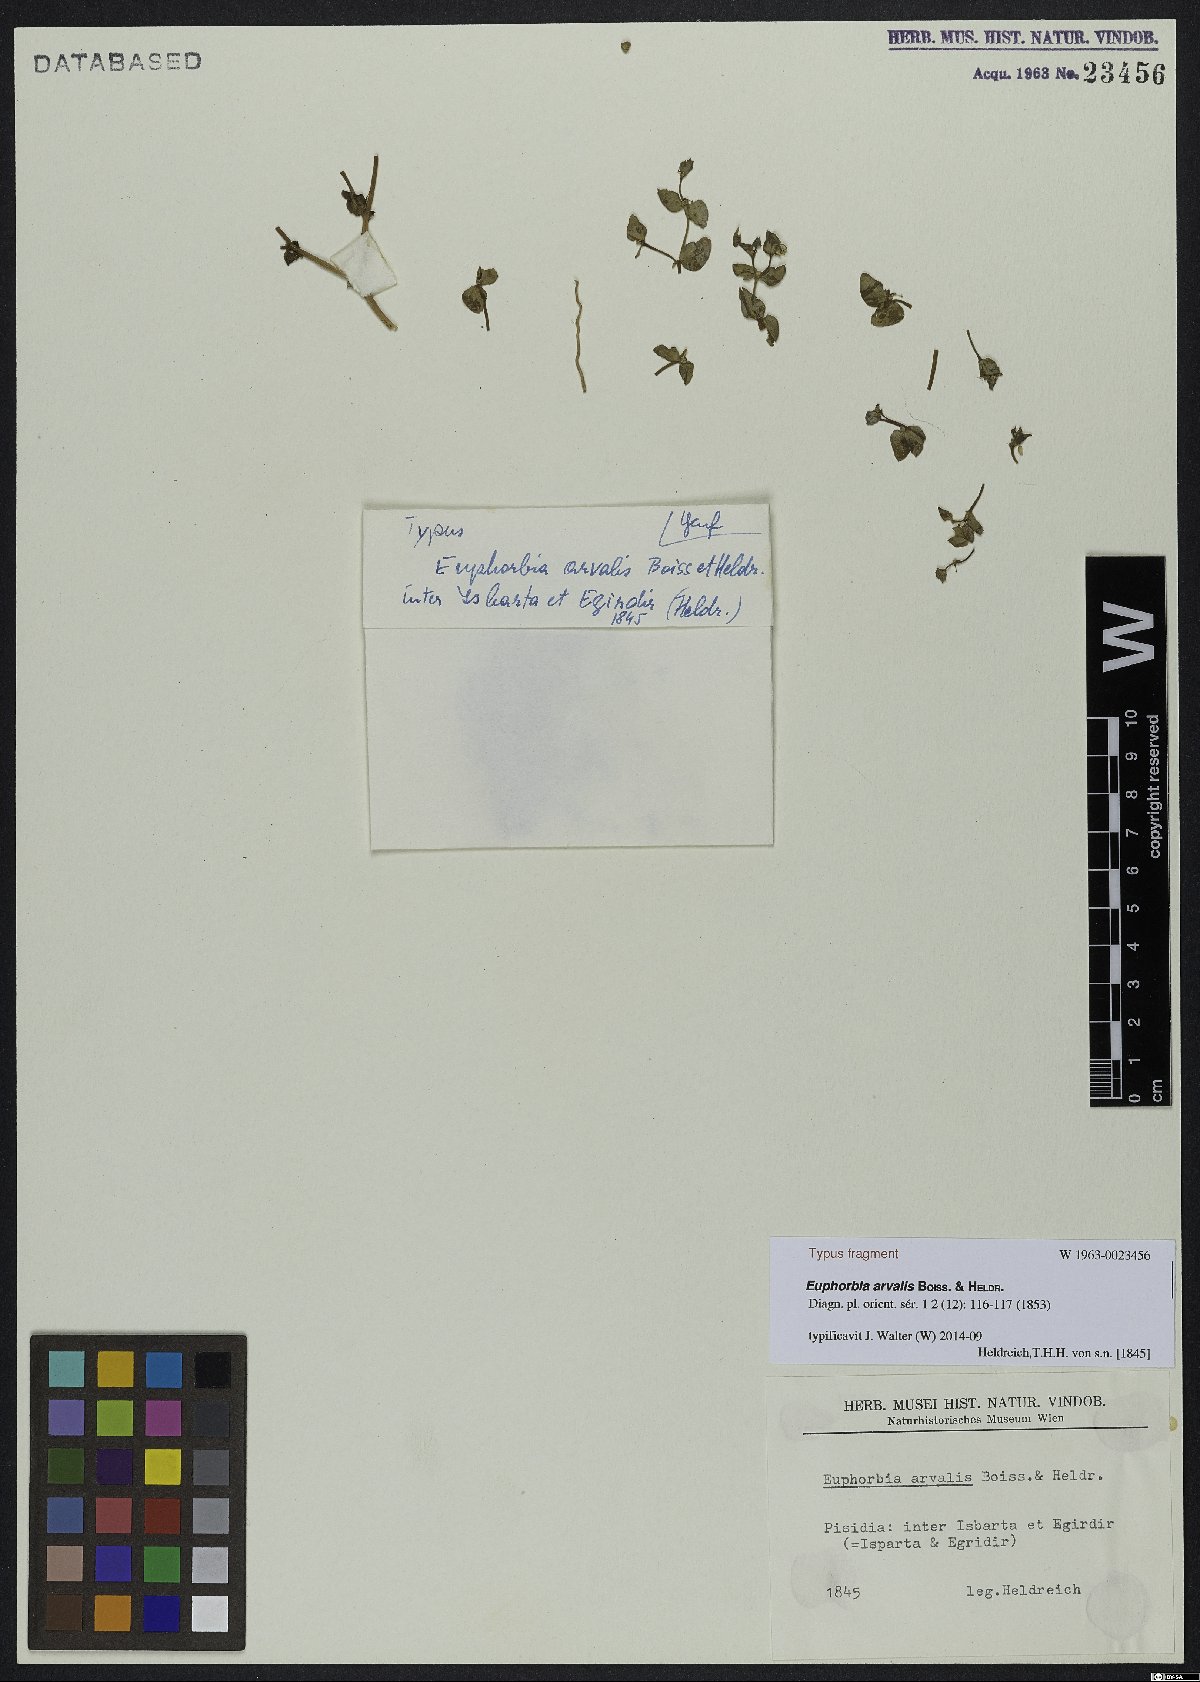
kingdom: Plantae
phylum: Tracheophyta
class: Magnoliopsida
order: Malpighiales
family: Euphorbiaceae
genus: Euphorbia
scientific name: Euphorbia arvalis
